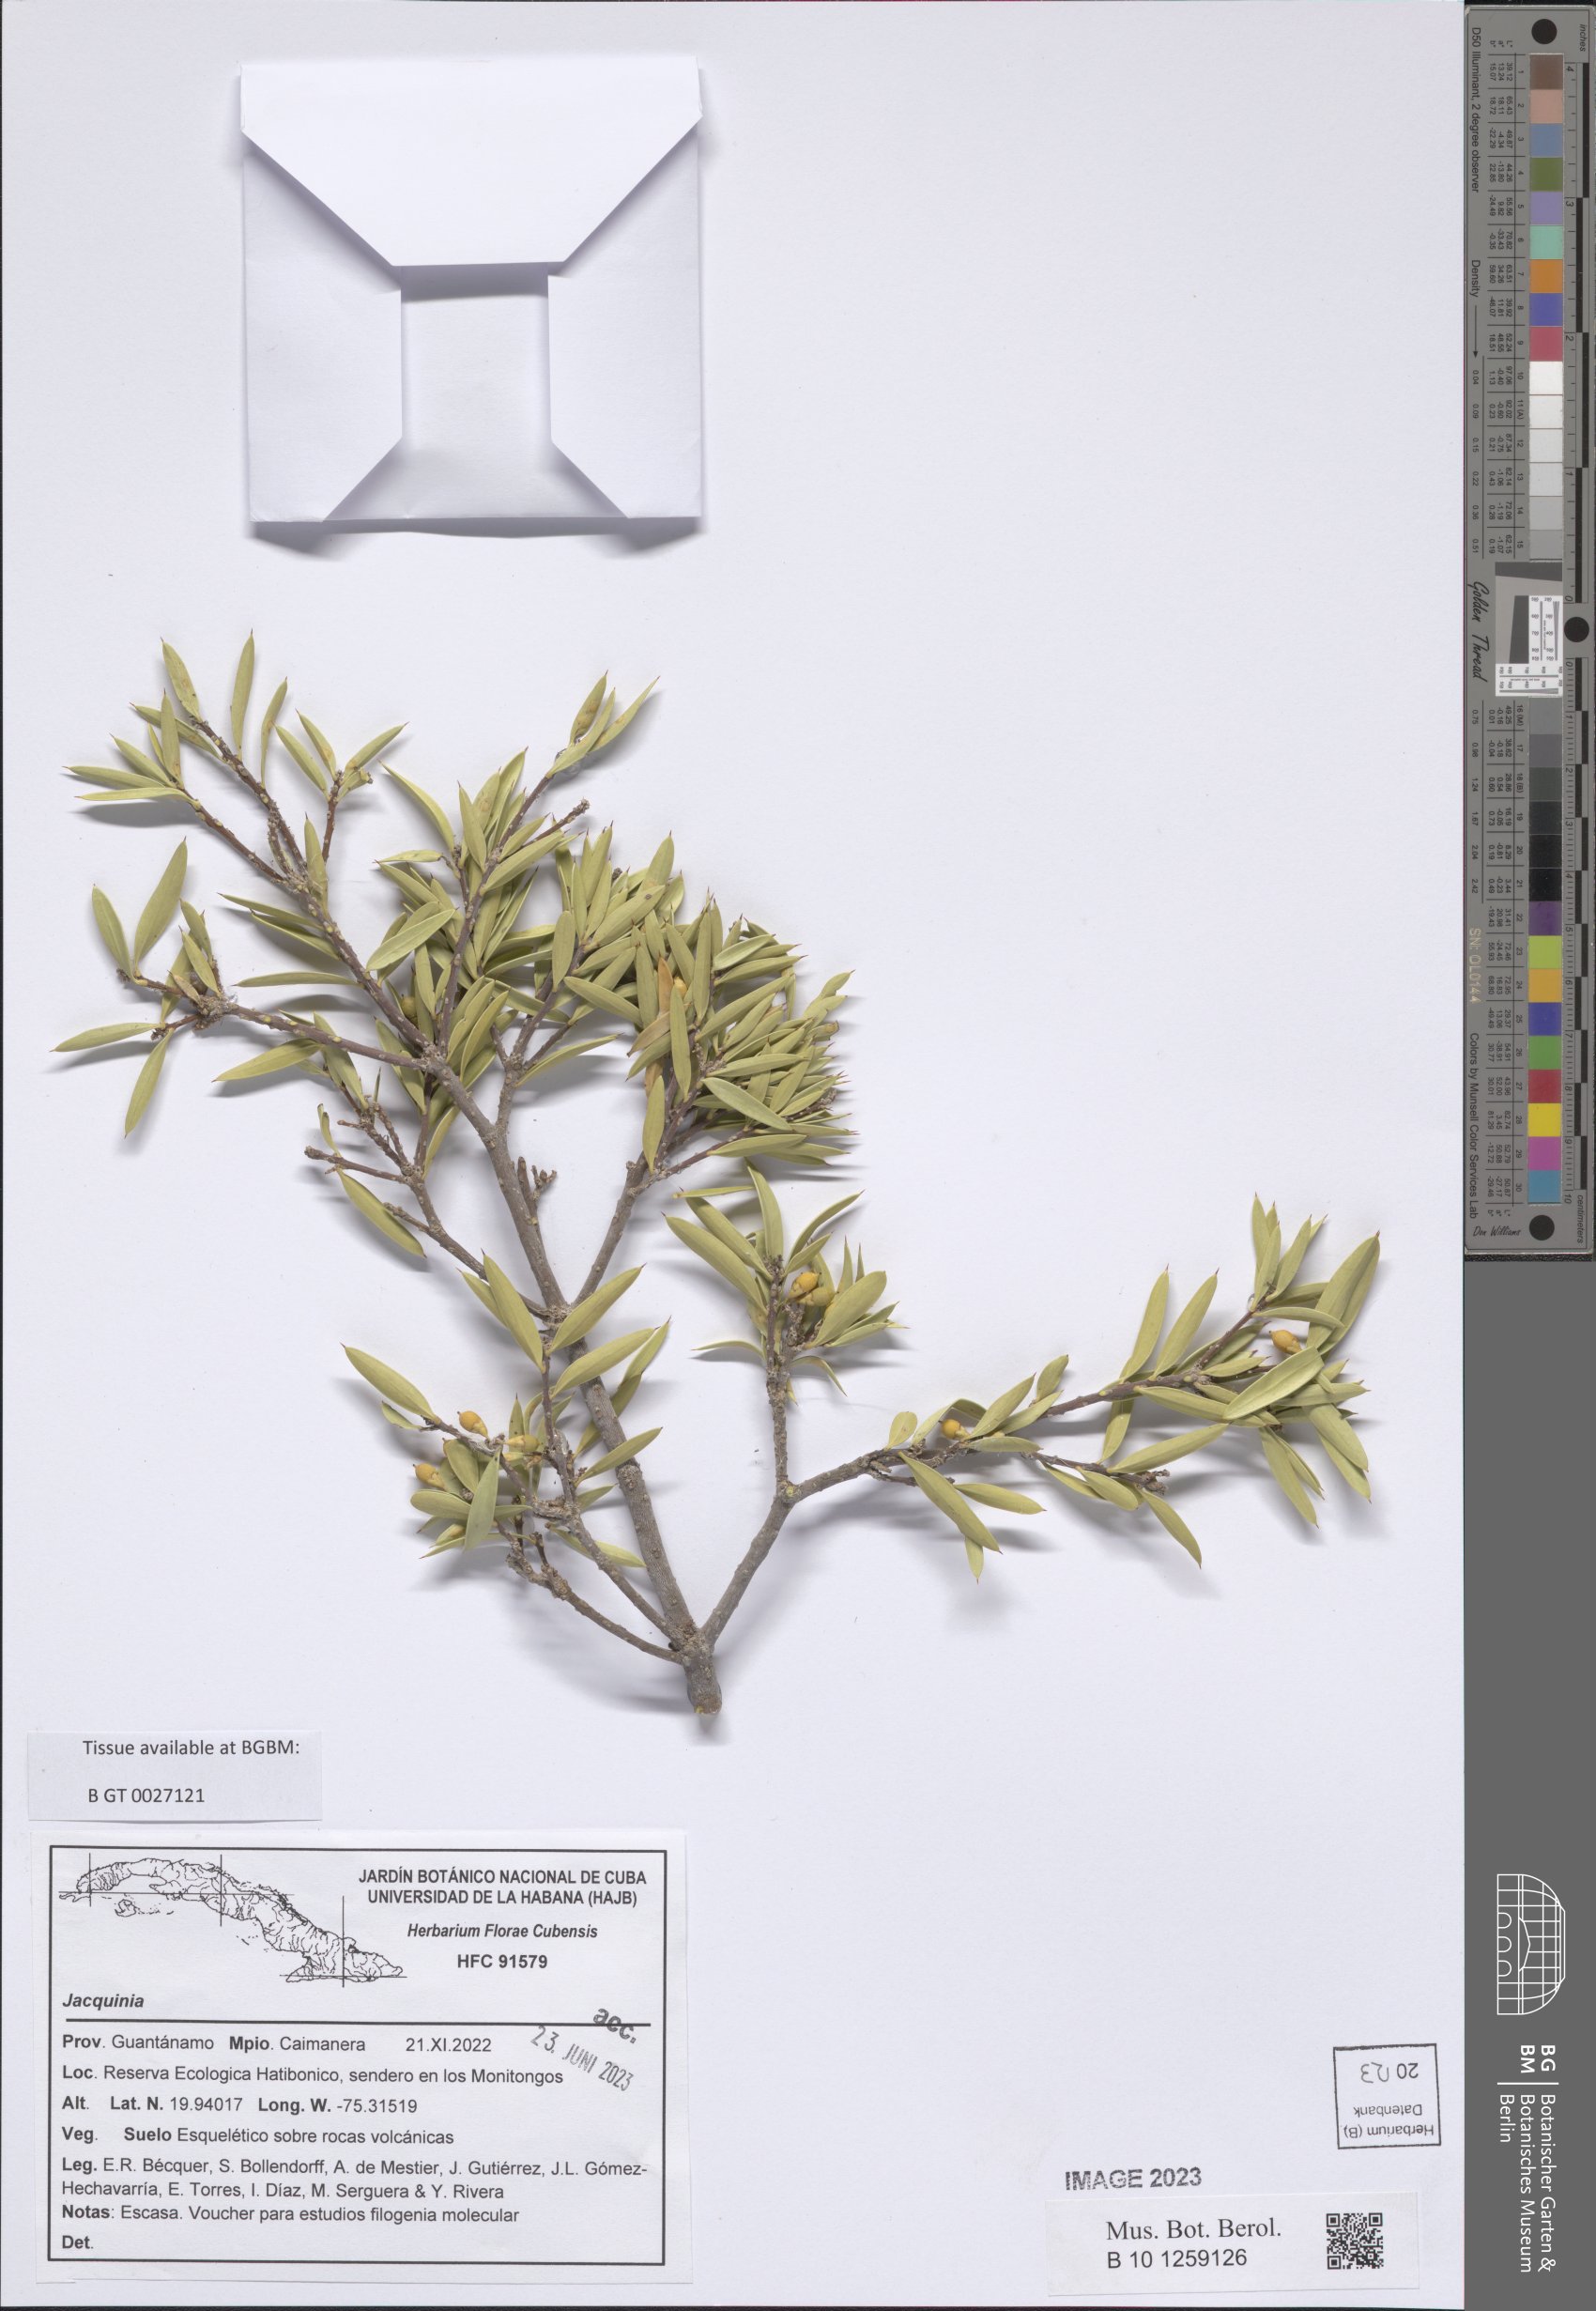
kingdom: Plantae
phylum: Tracheophyta
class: Magnoliopsida
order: Ericales
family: Primulaceae
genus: Jacquinia
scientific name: Jacquinia
